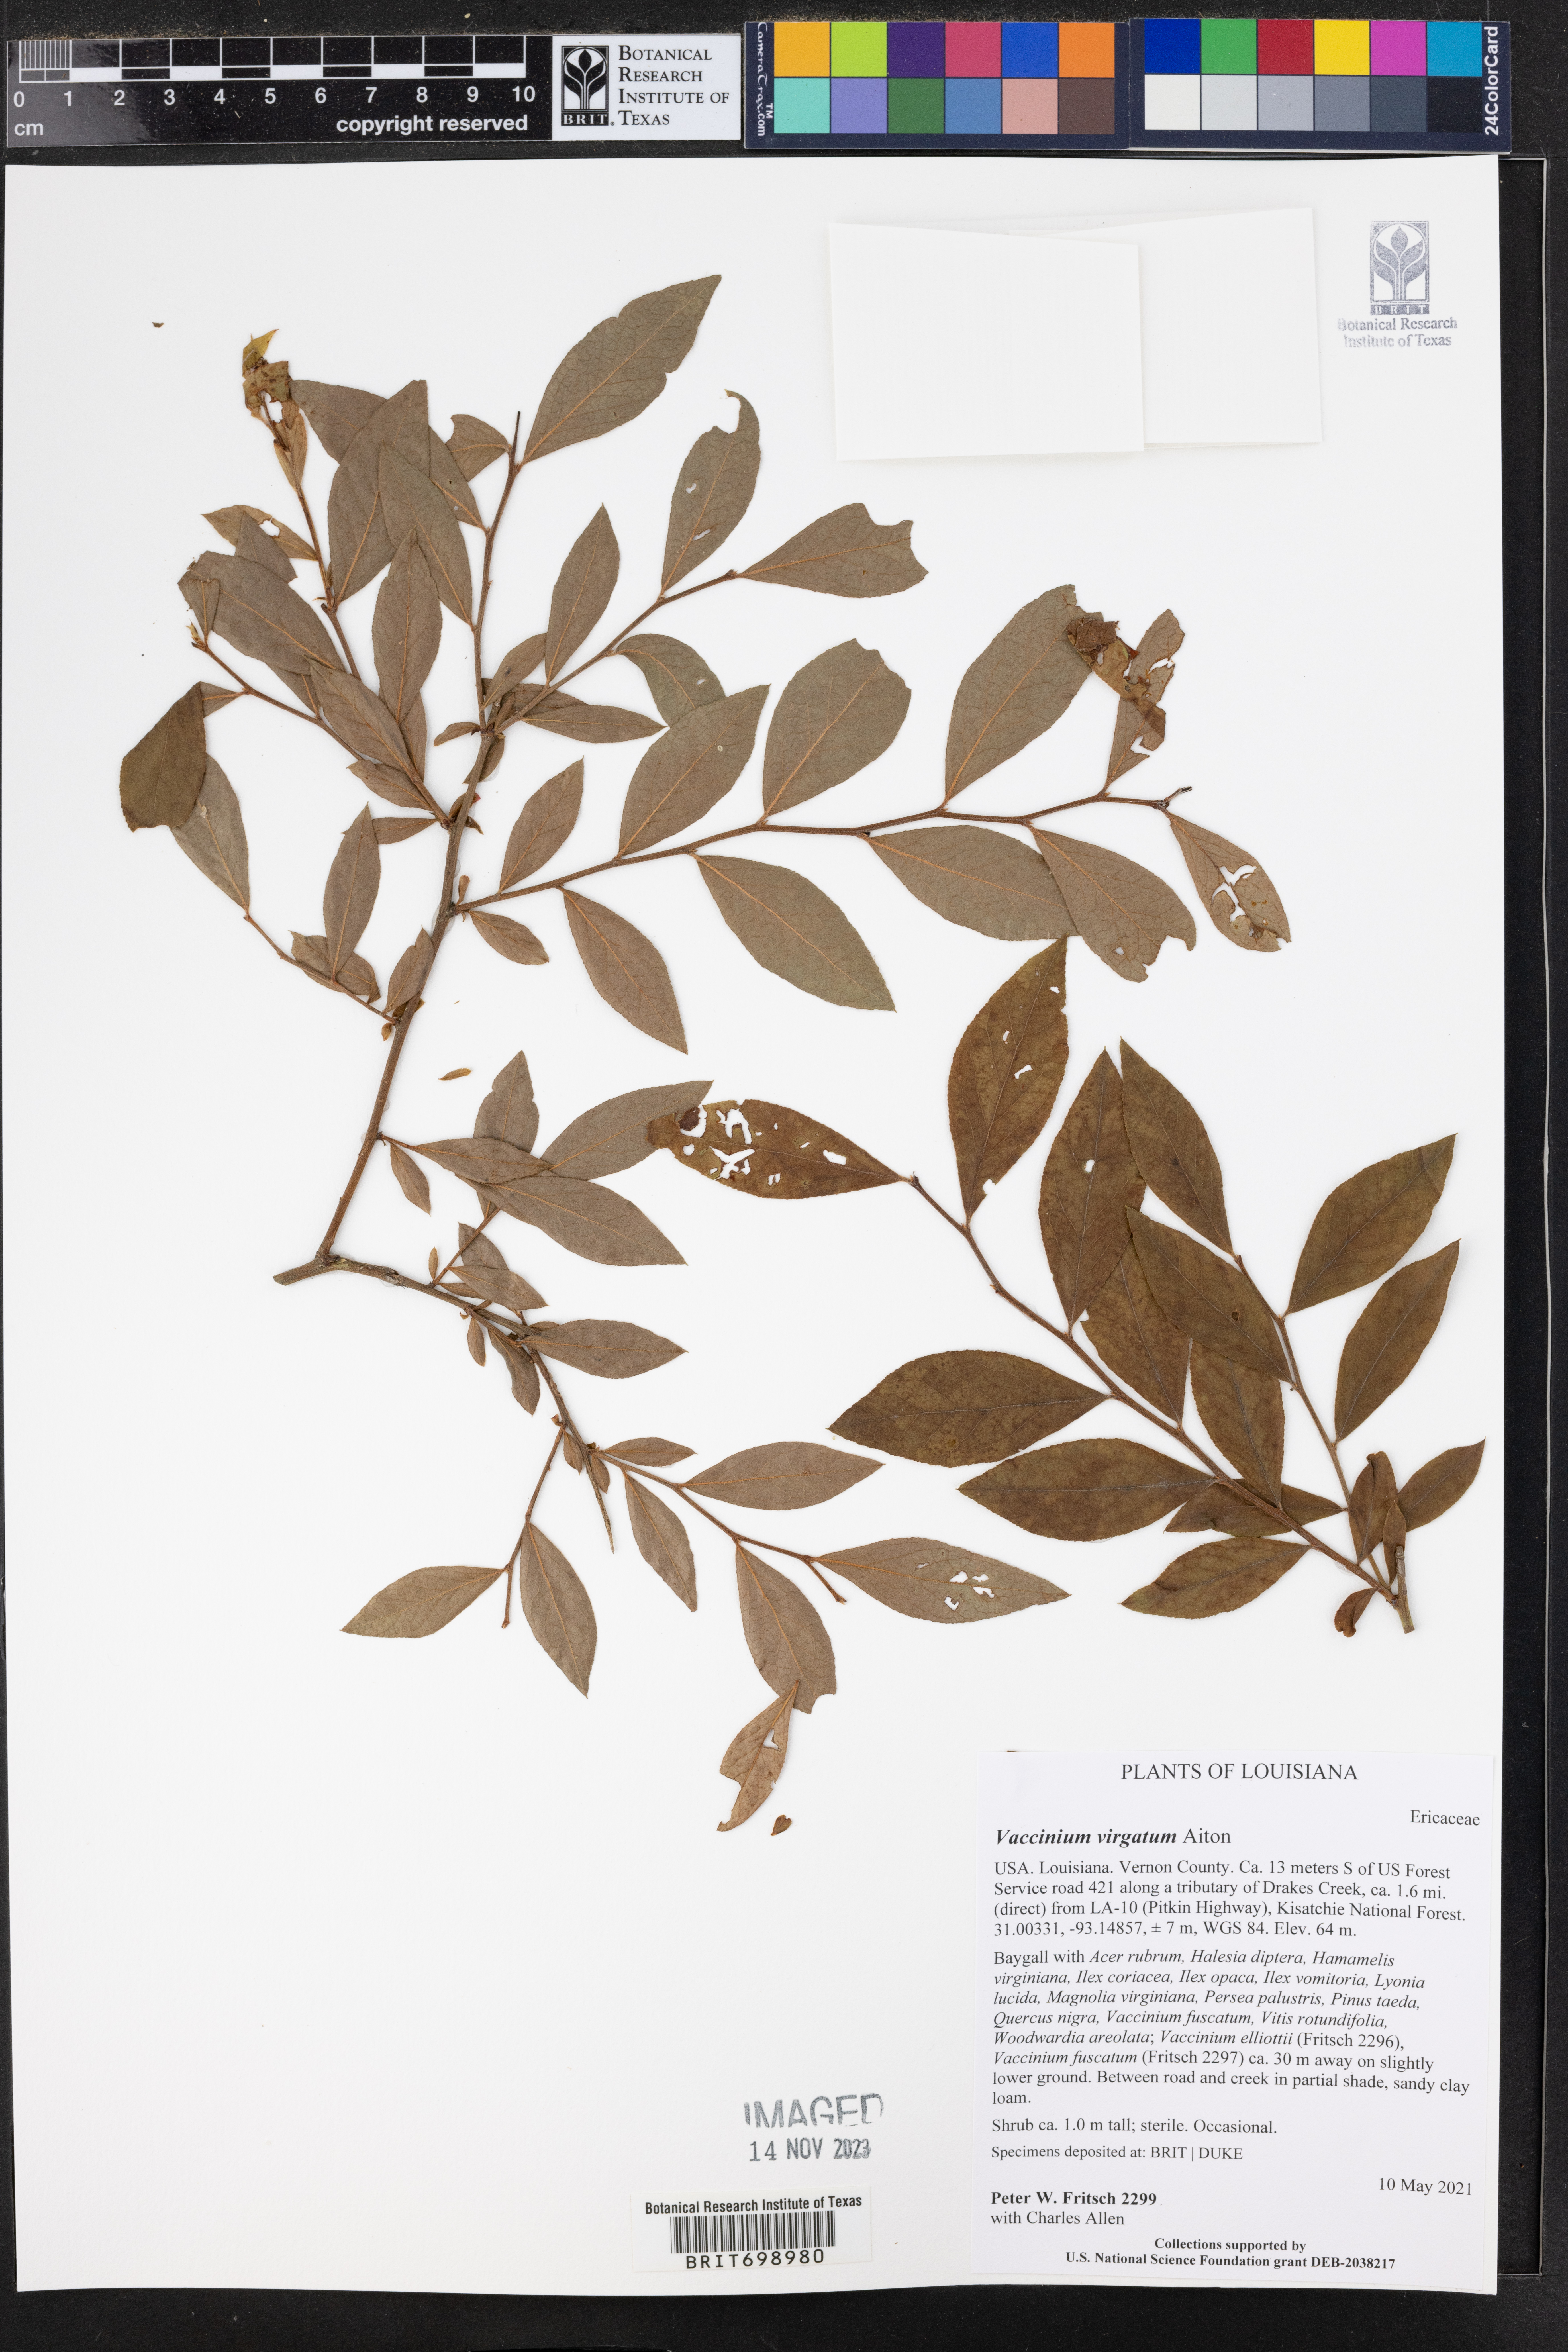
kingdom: Plantae
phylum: Tracheophyta
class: Magnoliopsida
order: Ericales
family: Ericaceae
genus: Vaccinium
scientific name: Vaccinium corymbosum
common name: Blueberry
